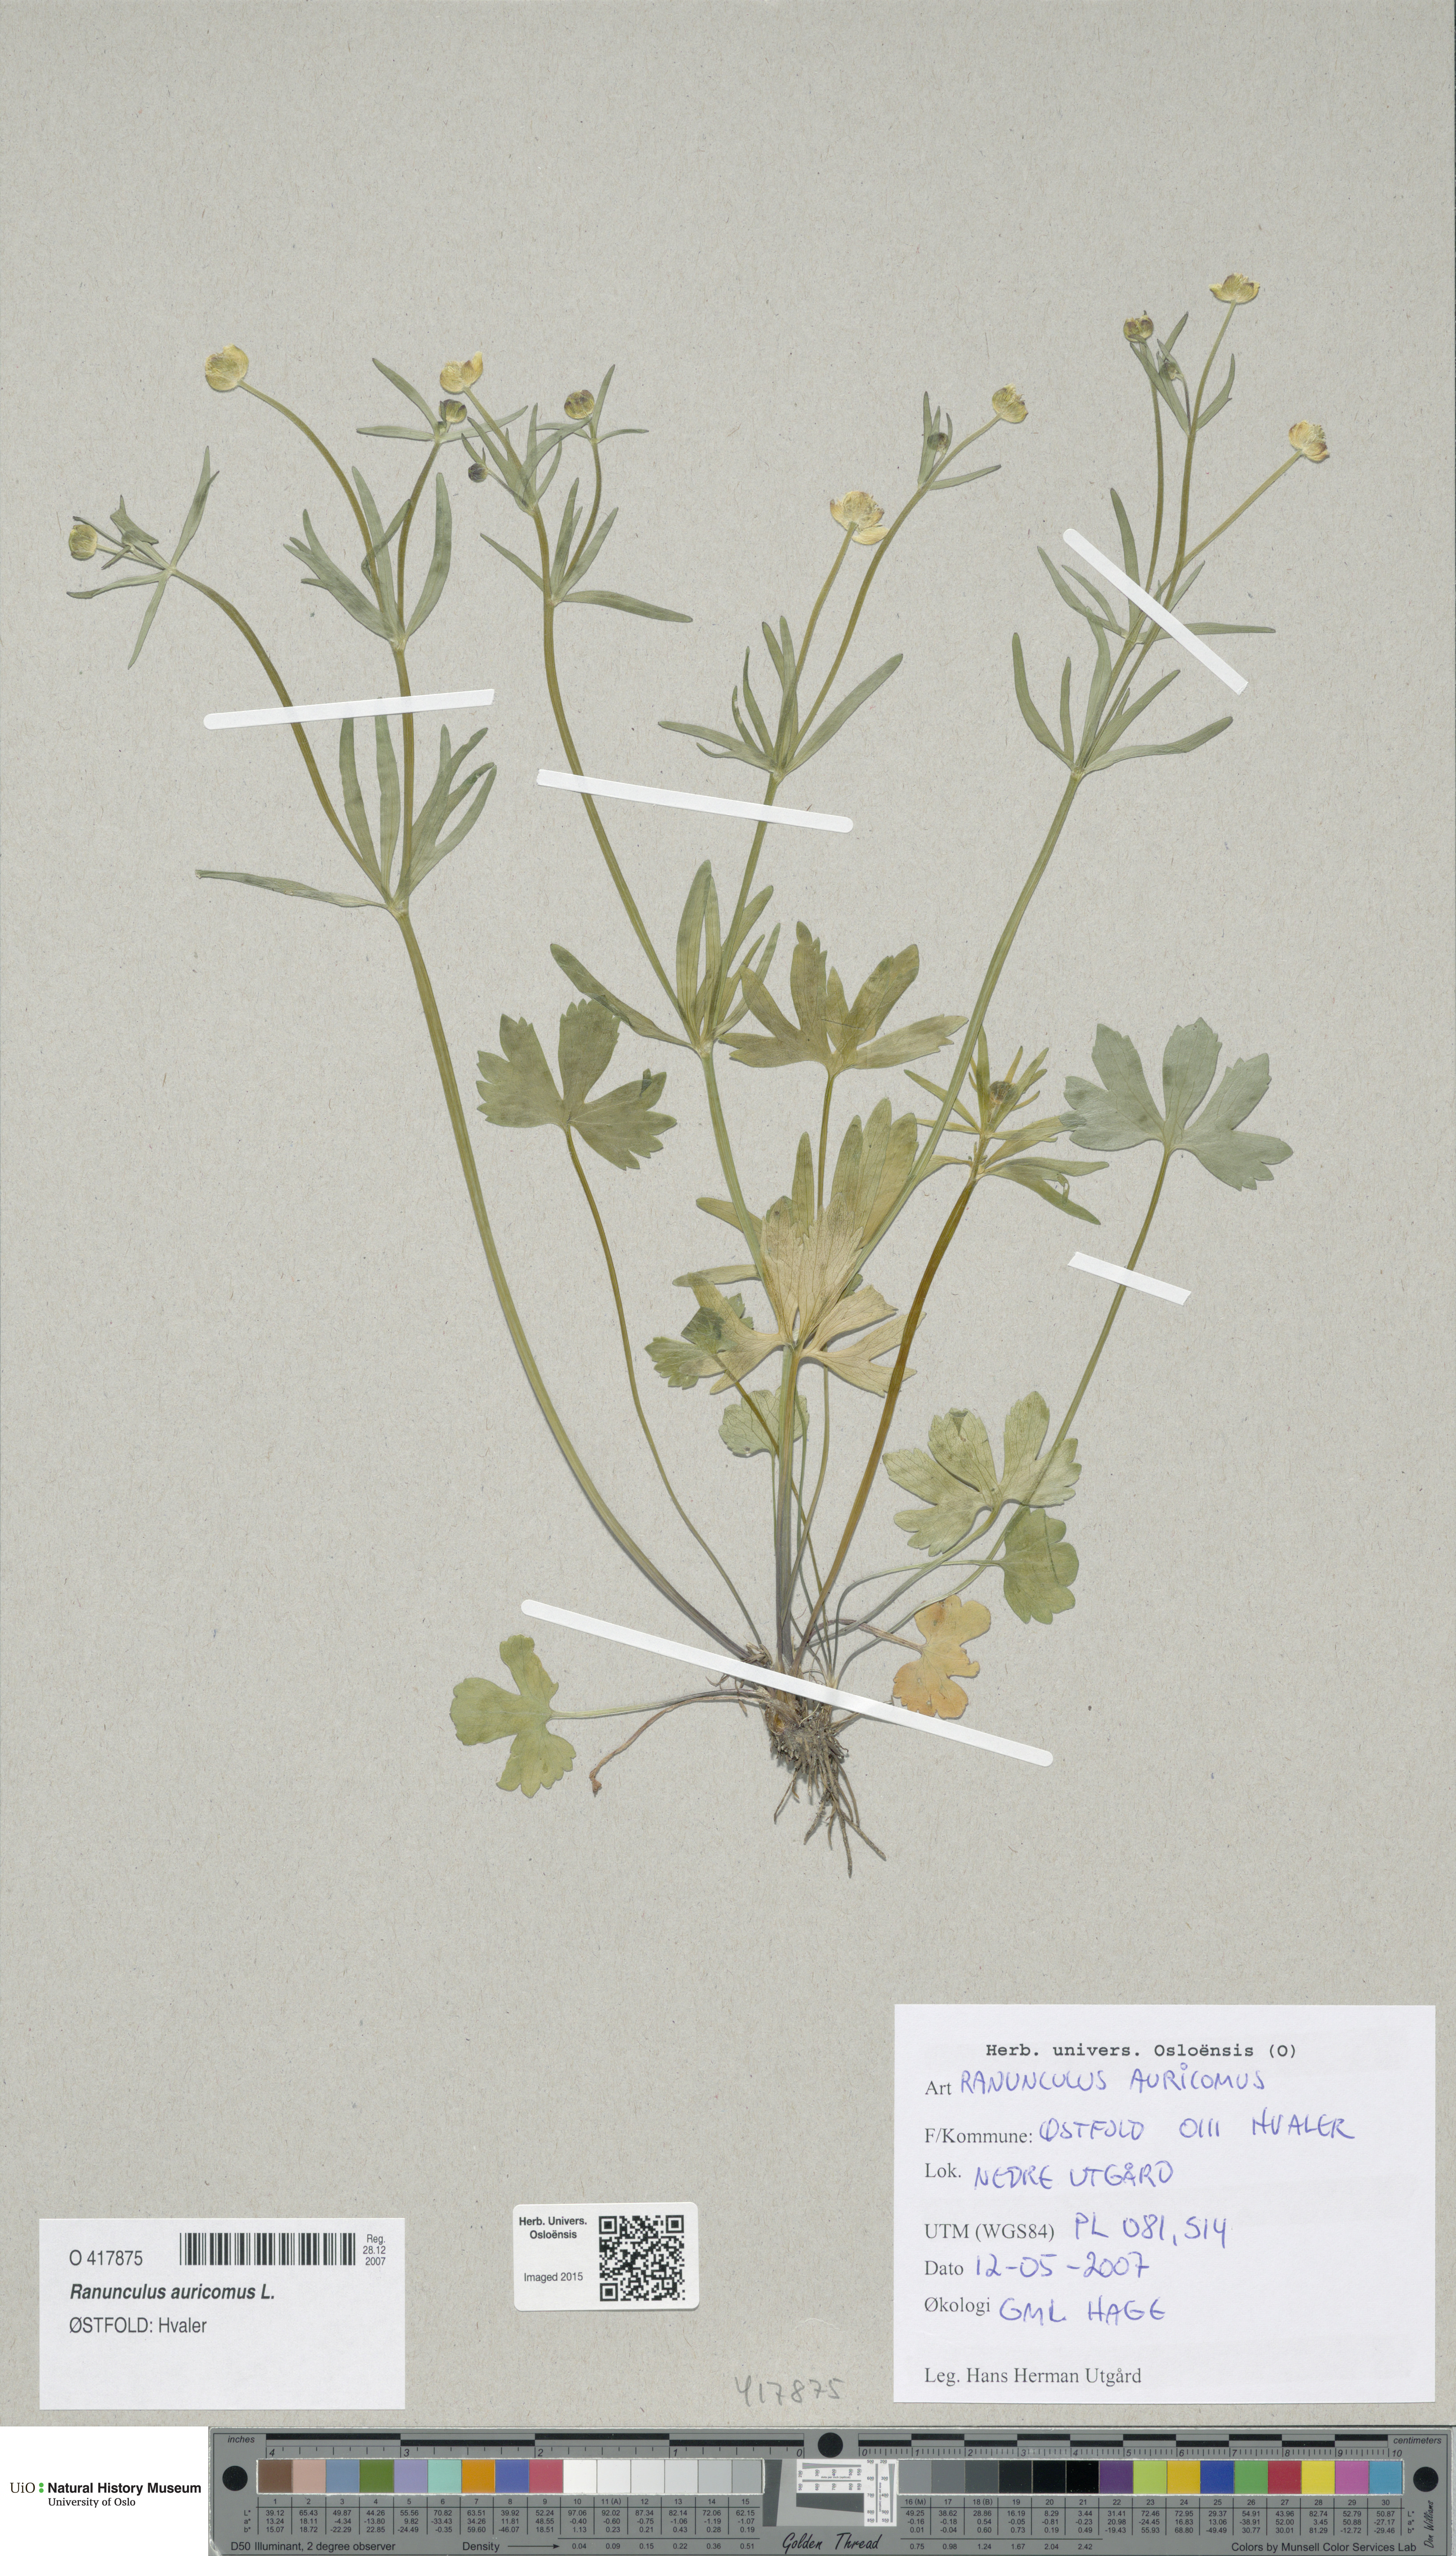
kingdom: Plantae
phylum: Tracheophyta
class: Magnoliopsida
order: Ranunculales
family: Ranunculaceae
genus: Ranunculus
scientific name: Ranunculus auricomus
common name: Goldilocks buttercup
